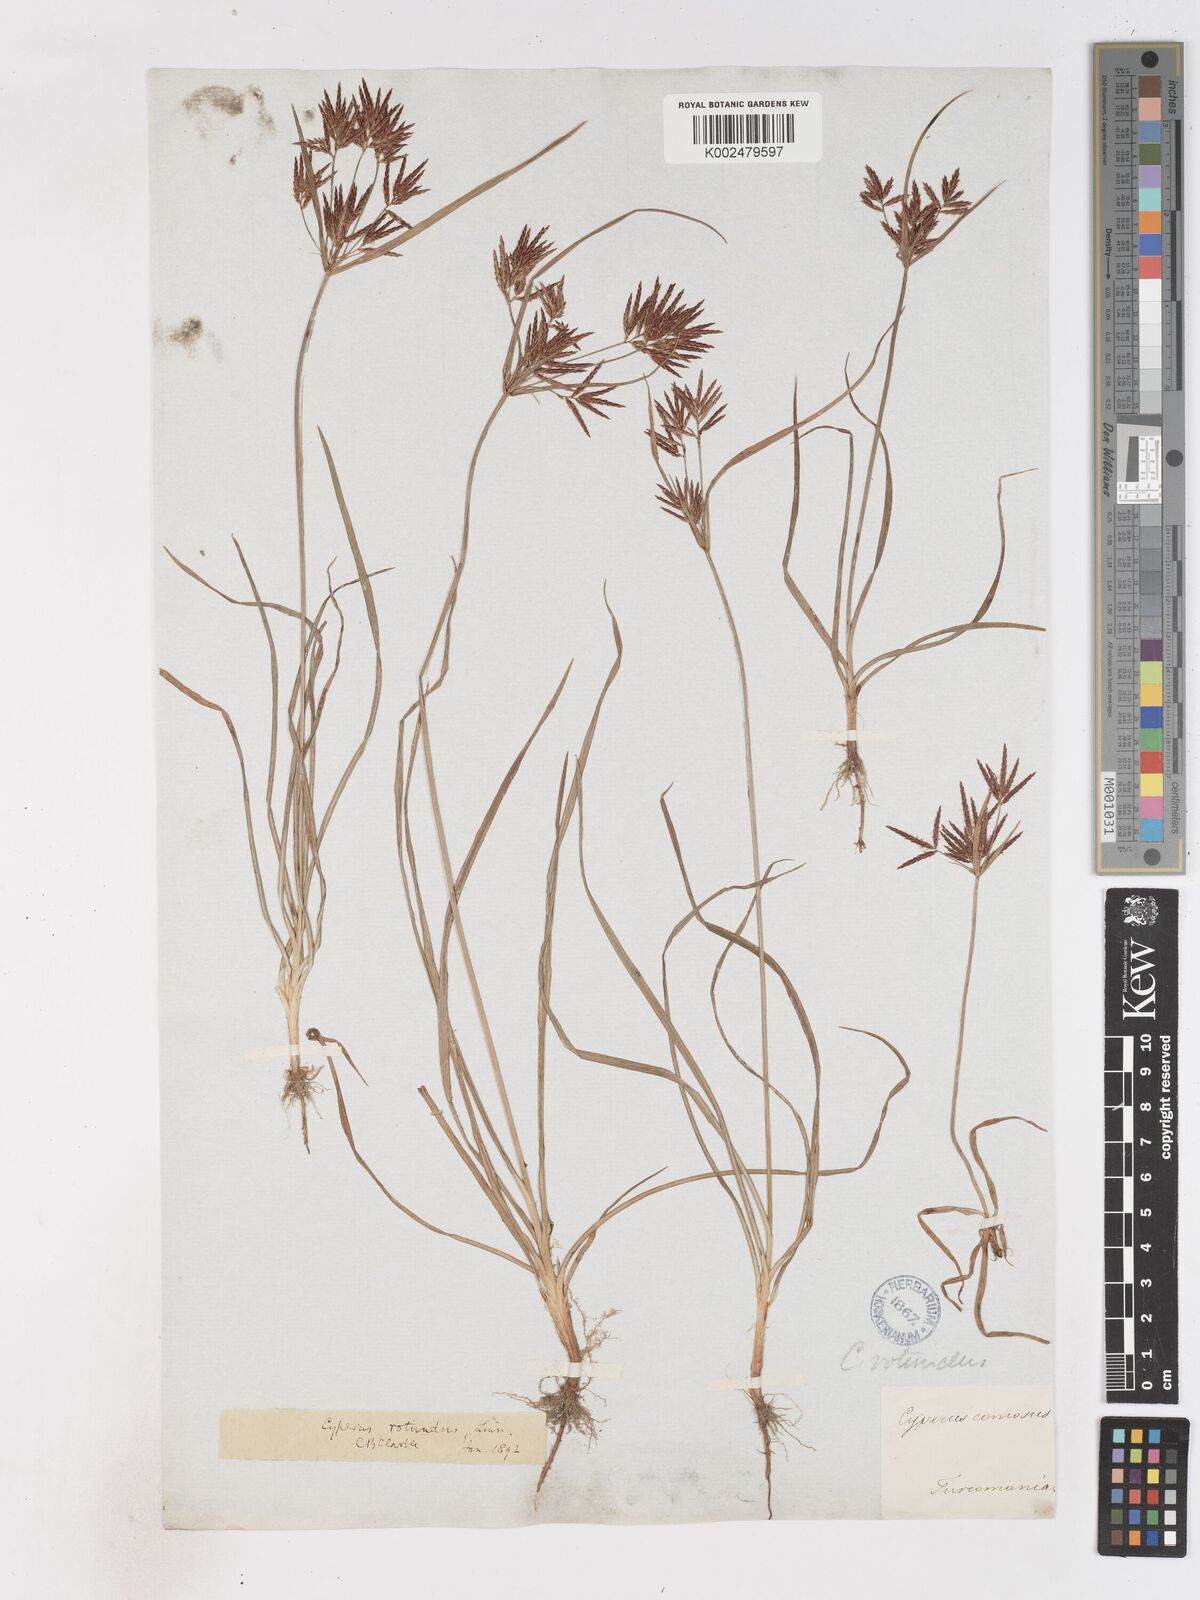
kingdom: Plantae
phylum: Tracheophyta
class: Liliopsida
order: Poales
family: Cyperaceae
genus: Cyperus
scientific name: Cyperus rotundus
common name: Nutgrass
